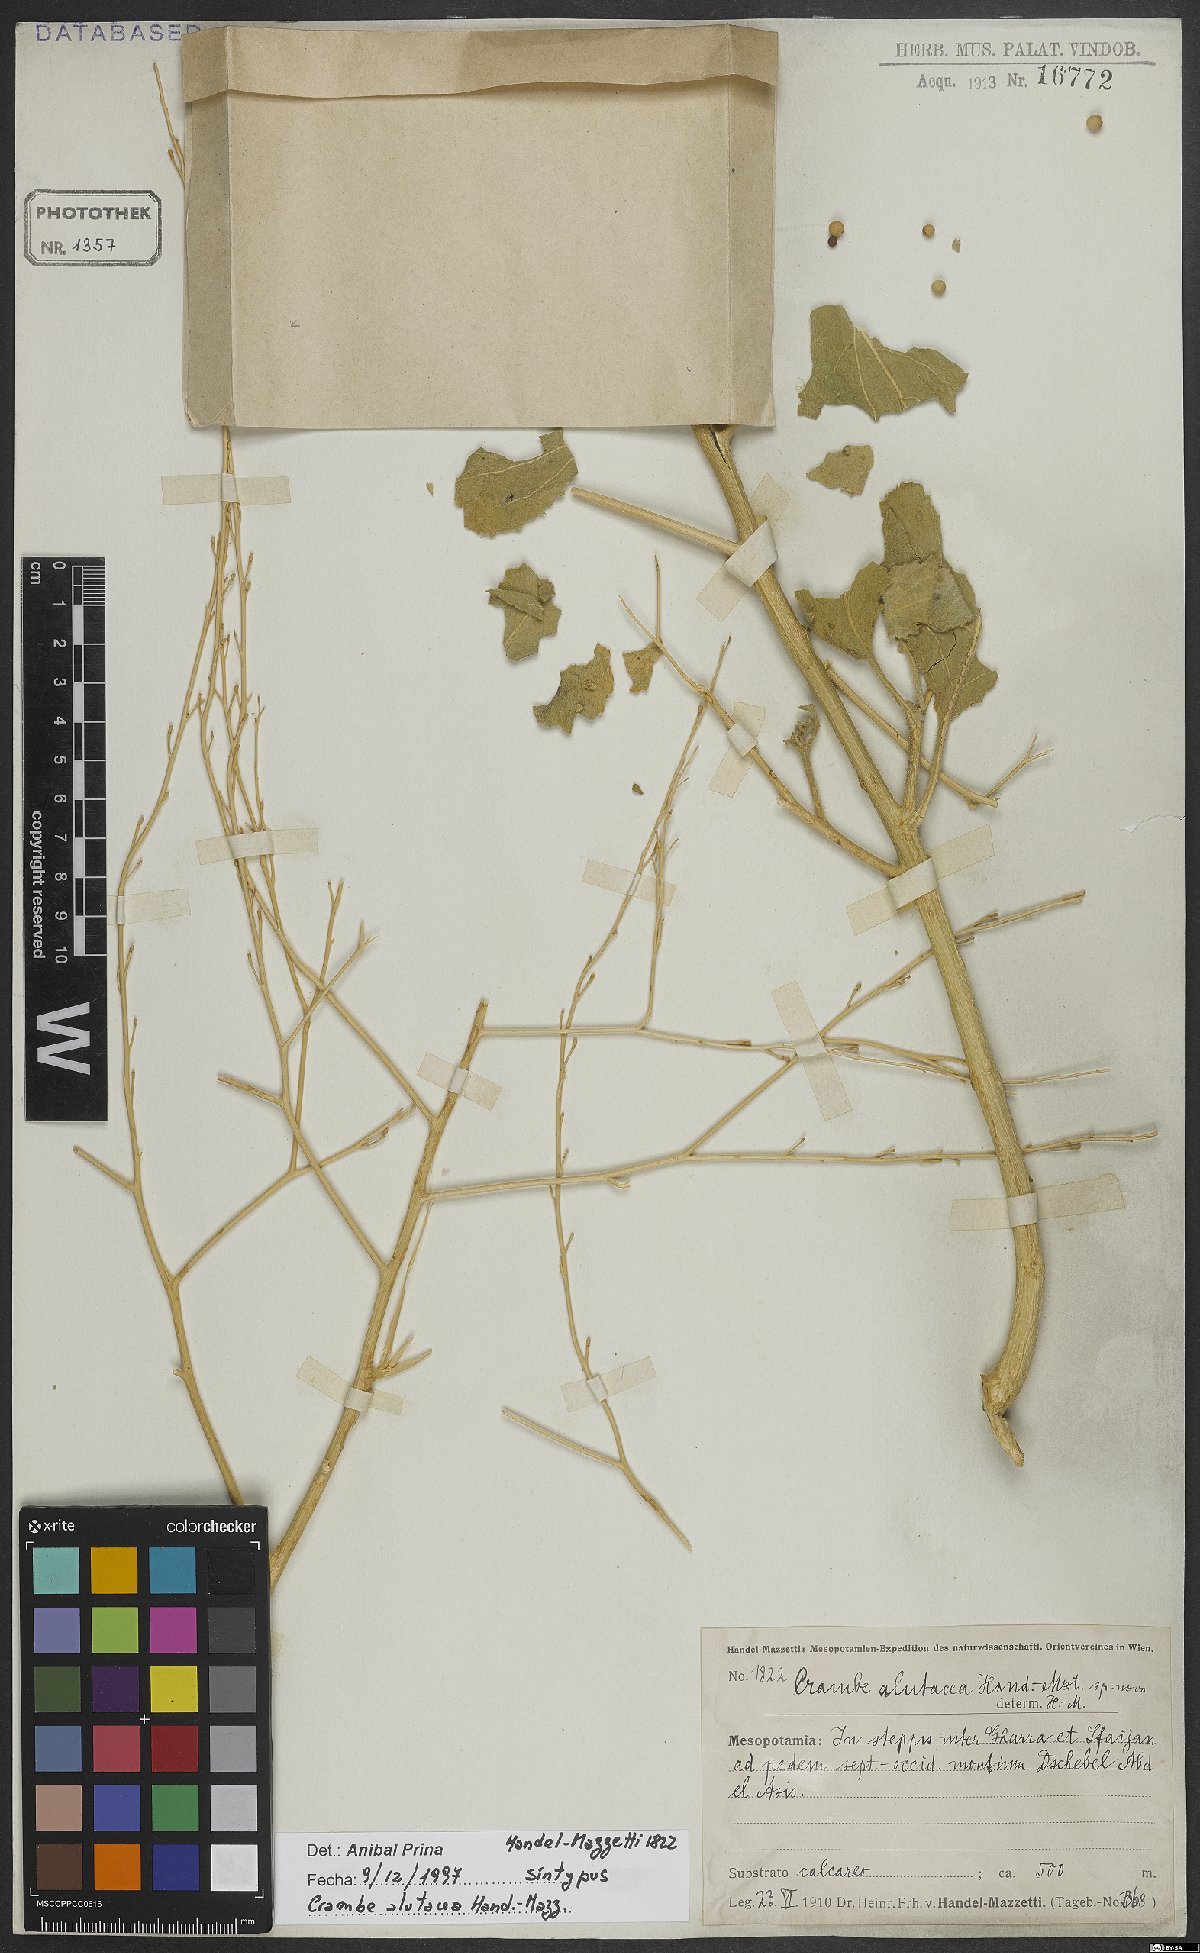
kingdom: Plantae
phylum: Tracheophyta
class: Magnoliopsida
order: Brassicales
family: Brassicaceae
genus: Crambe
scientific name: Crambe alutacea
